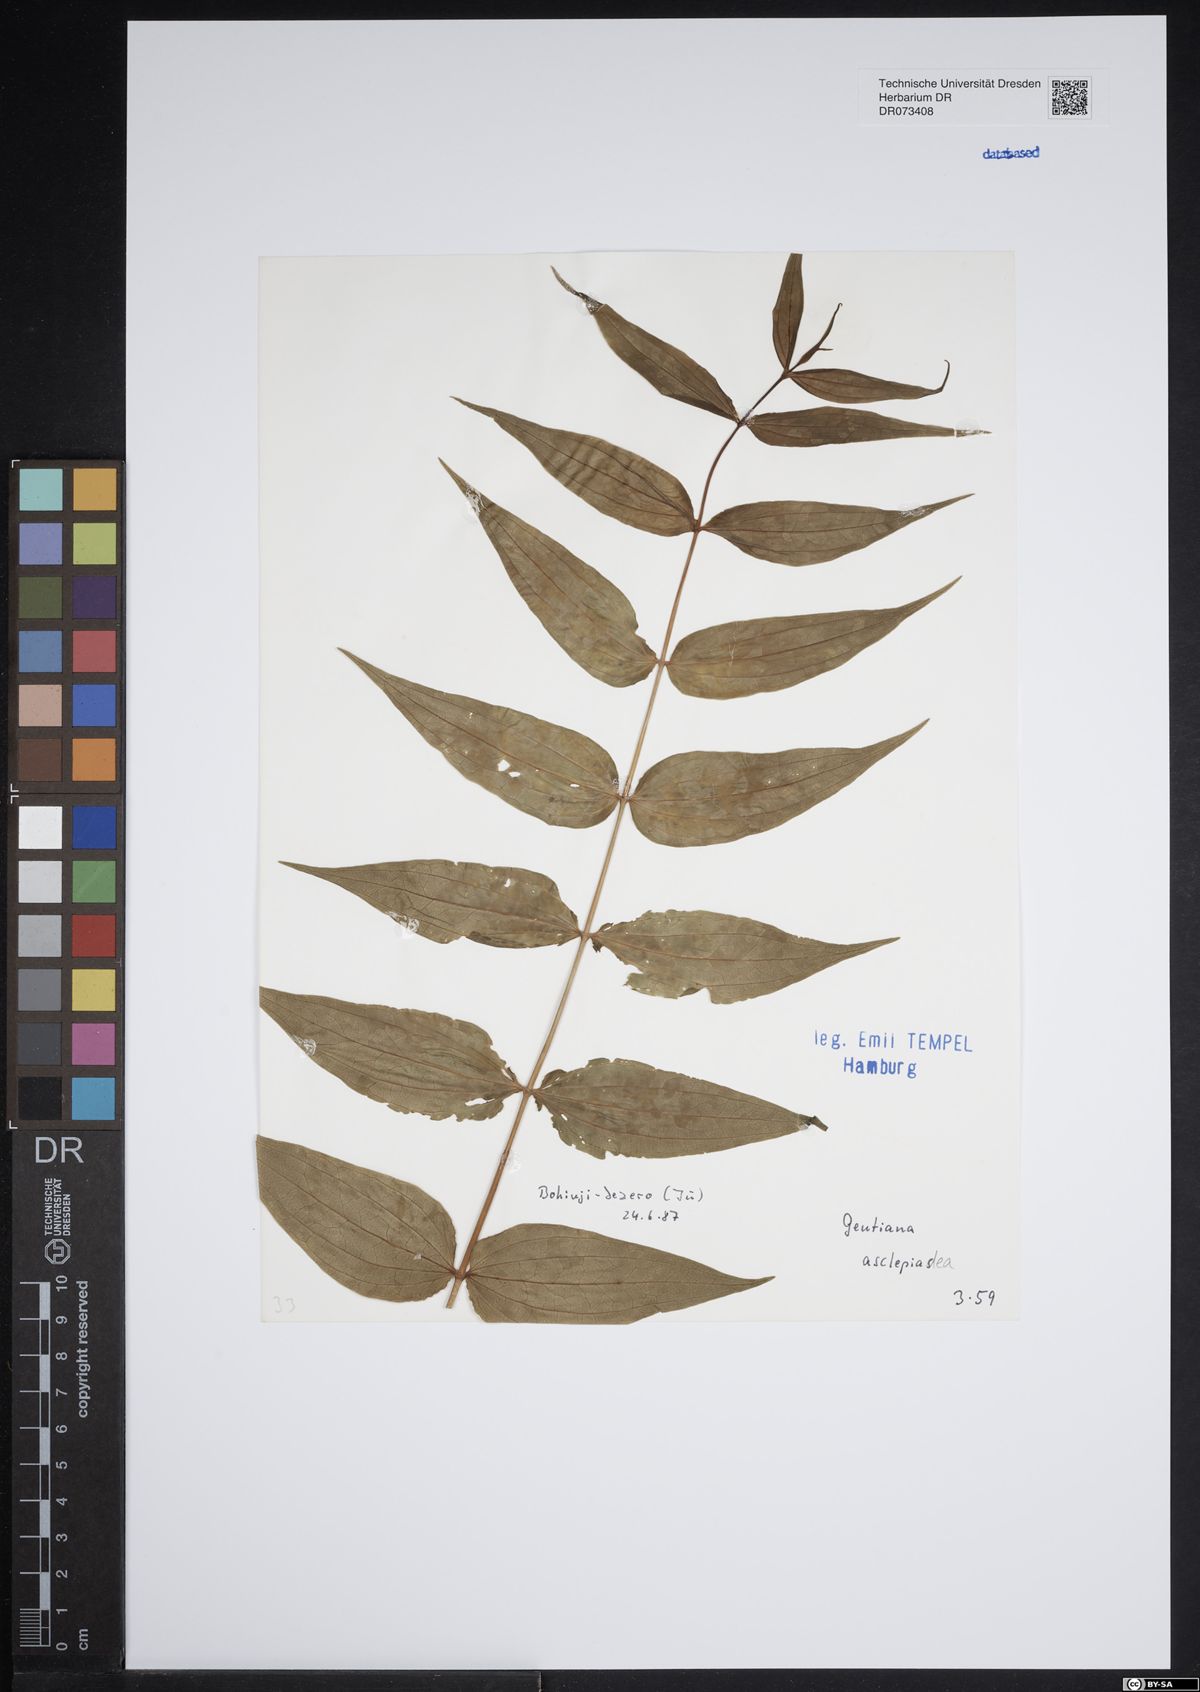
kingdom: Plantae
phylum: Tracheophyta
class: Magnoliopsida
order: Gentianales
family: Gentianaceae
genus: Gentiana
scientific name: Gentiana asclepiadea
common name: Willow gentian
